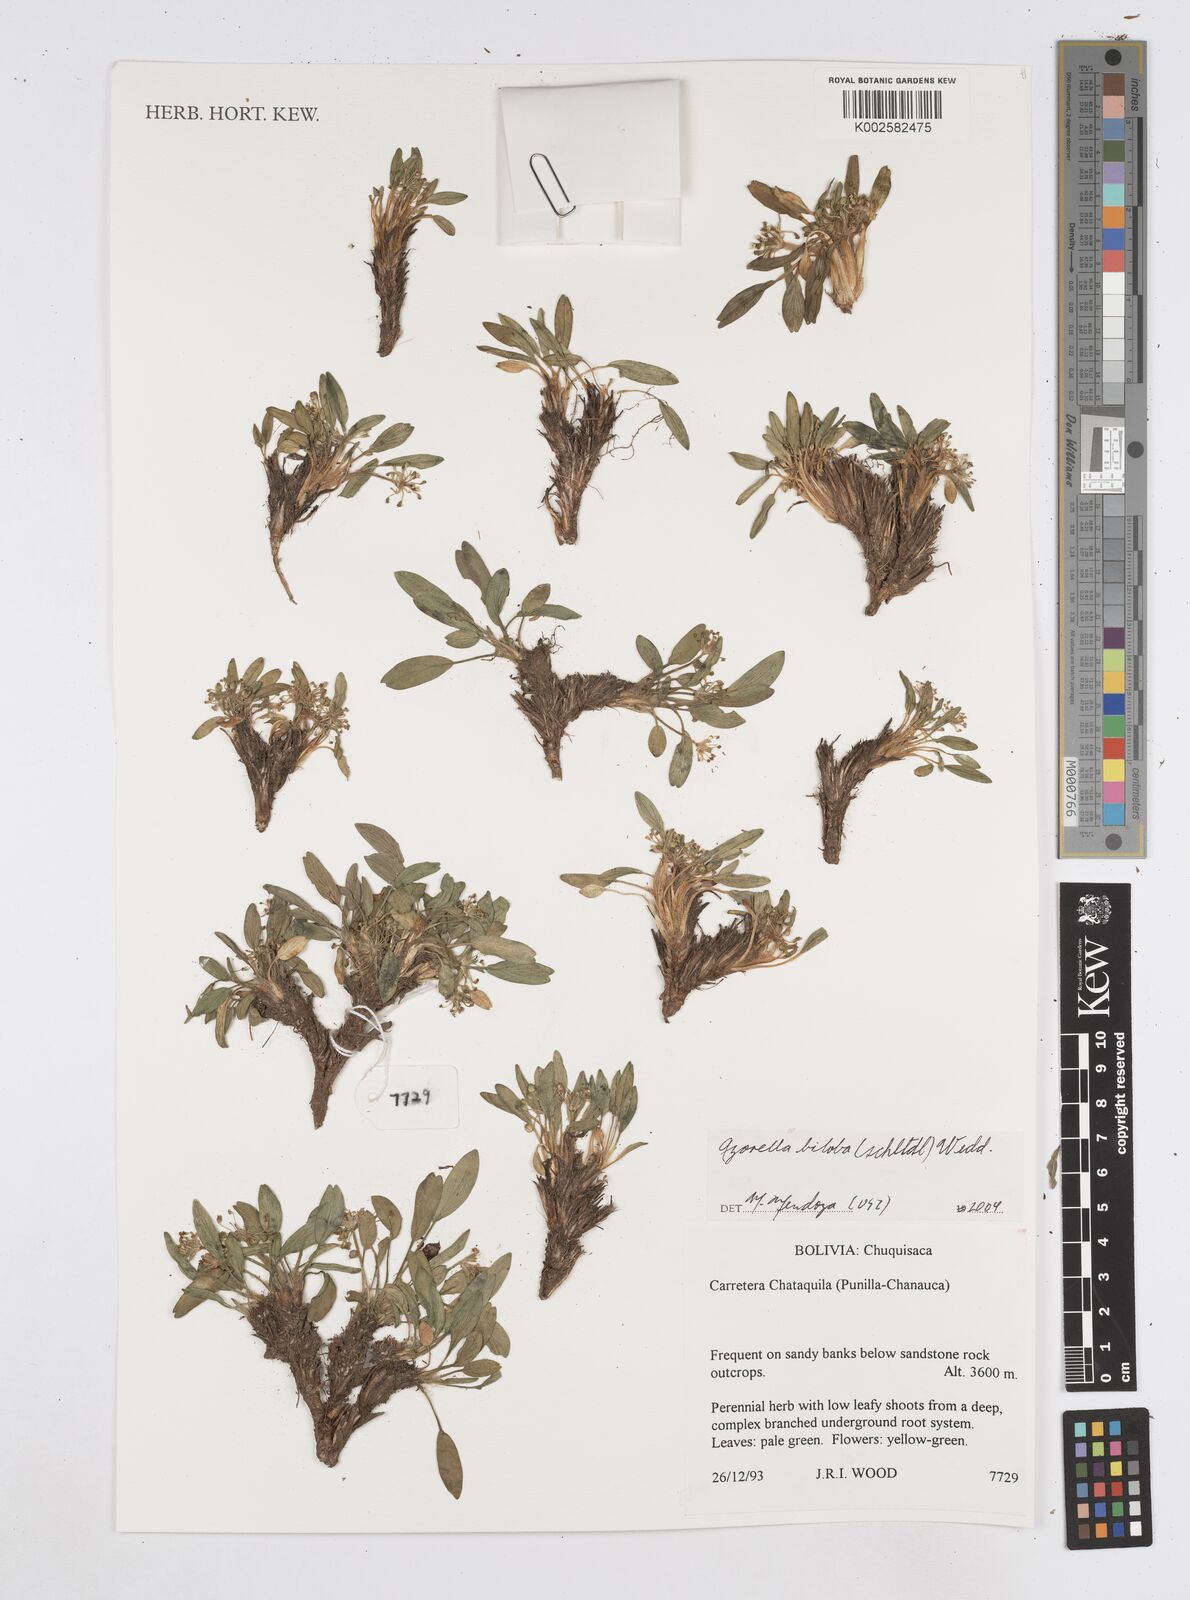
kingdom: Plantae
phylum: Tracheophyta
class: Magnoliopsida
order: Apiales
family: Apiaceae
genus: Azorella
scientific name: Azorella biloba
